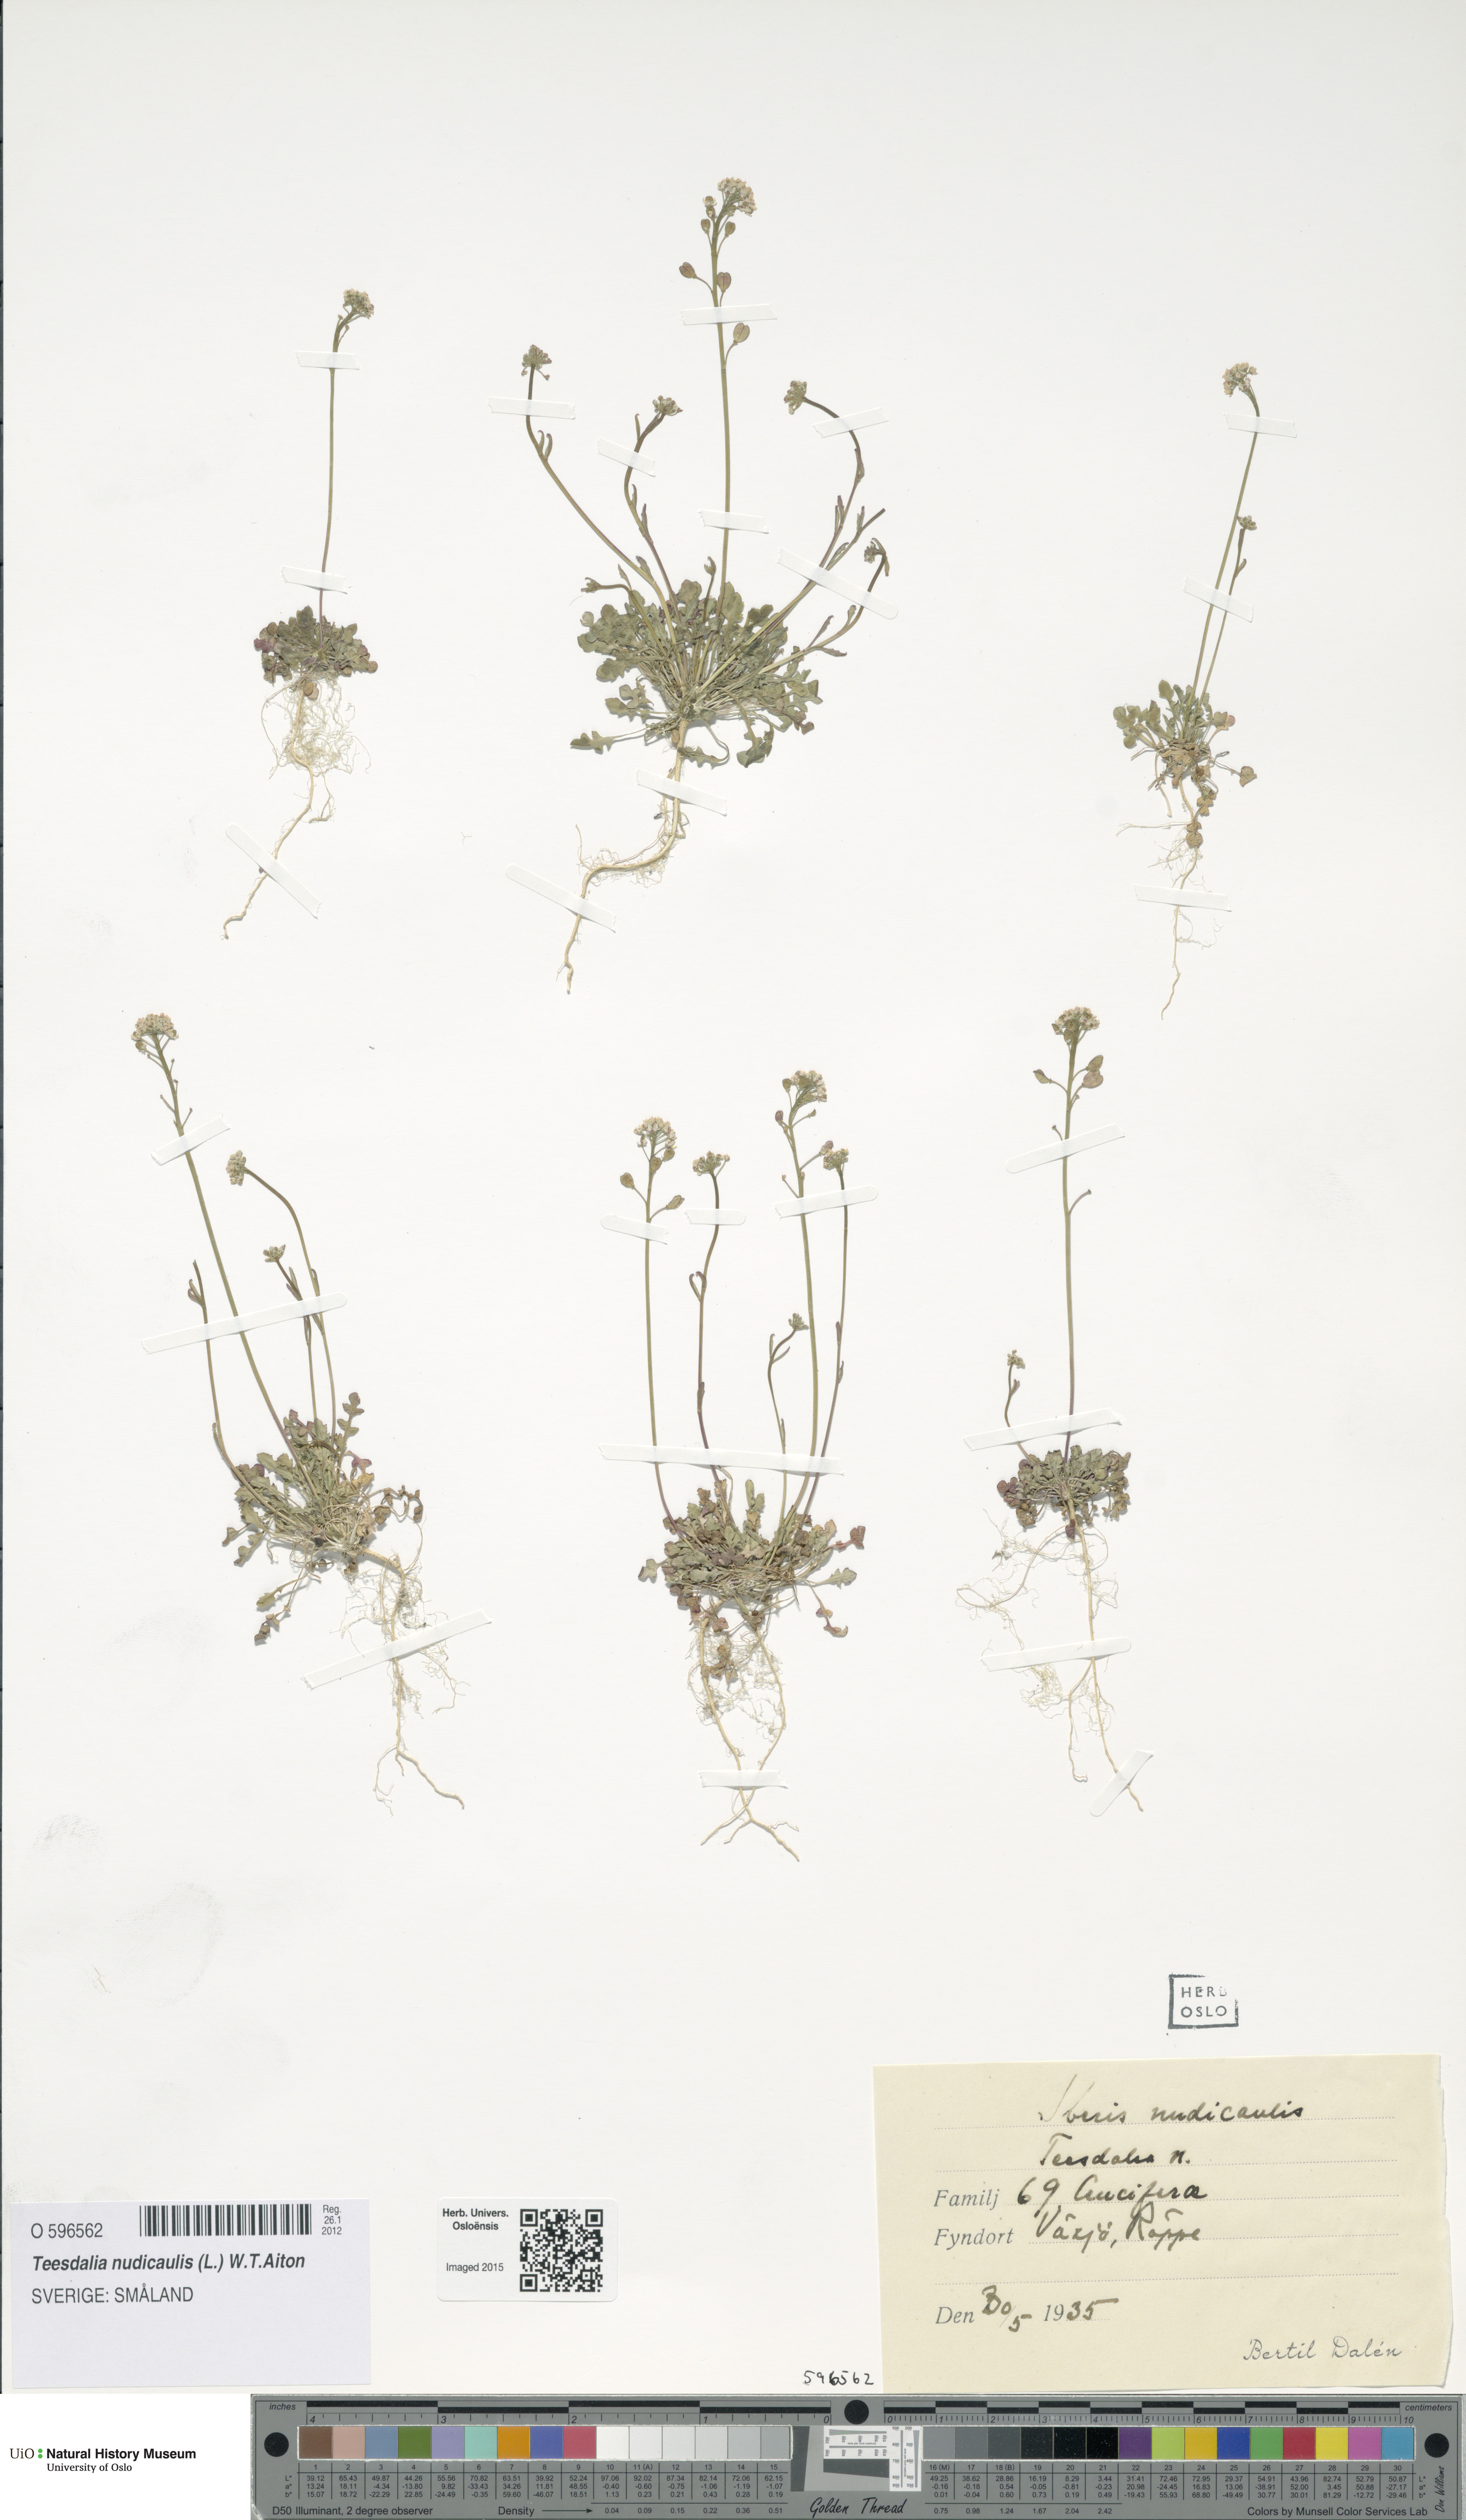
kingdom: Plantae
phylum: Tracheophyta
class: Magnoliopsida
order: Brassicales
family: Brassicaceae
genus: Teesdalia
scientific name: Teesdalia nudicaulis
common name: Shepherd's cress
